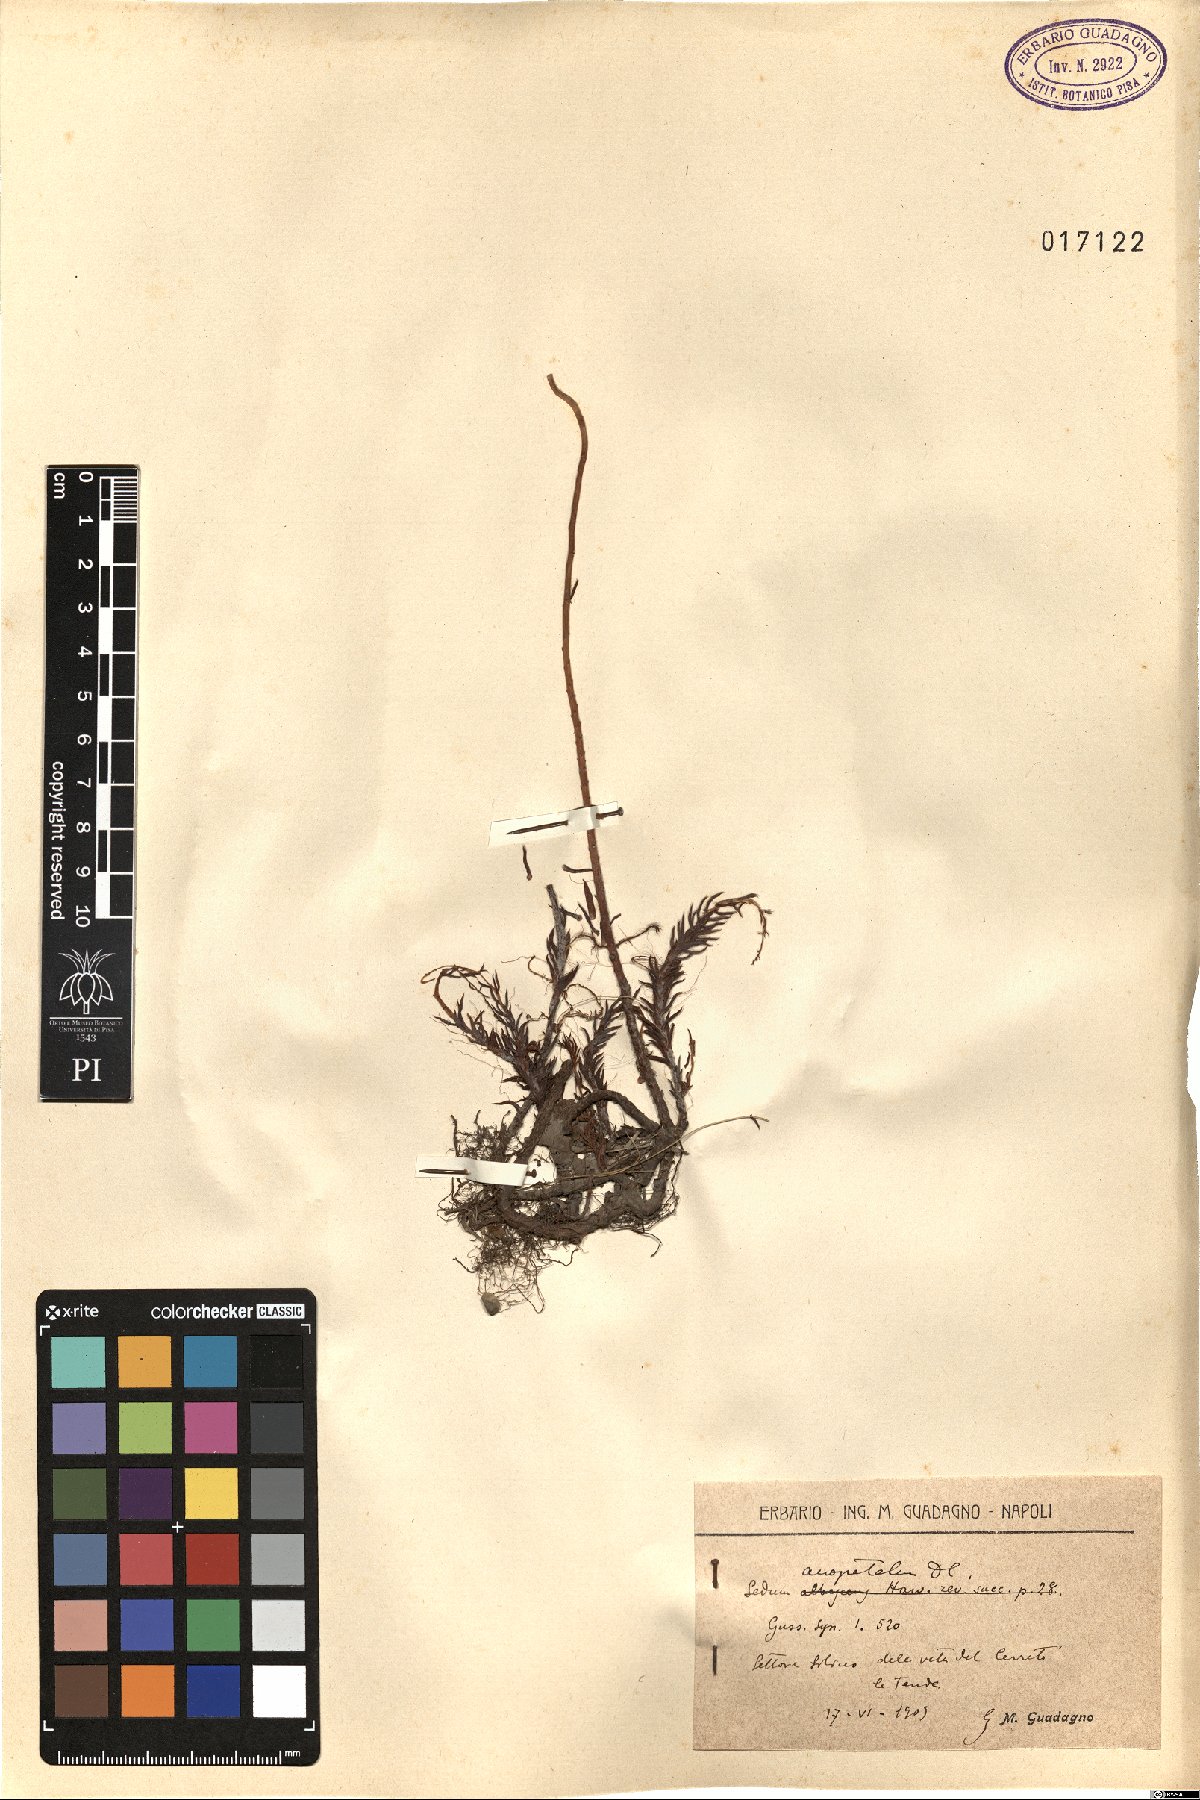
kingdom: Plantae
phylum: Tracheophyta
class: Magnoliopsida
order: Saxifragales
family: Crassulaceae
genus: Petrosedum
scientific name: Petrosedum
